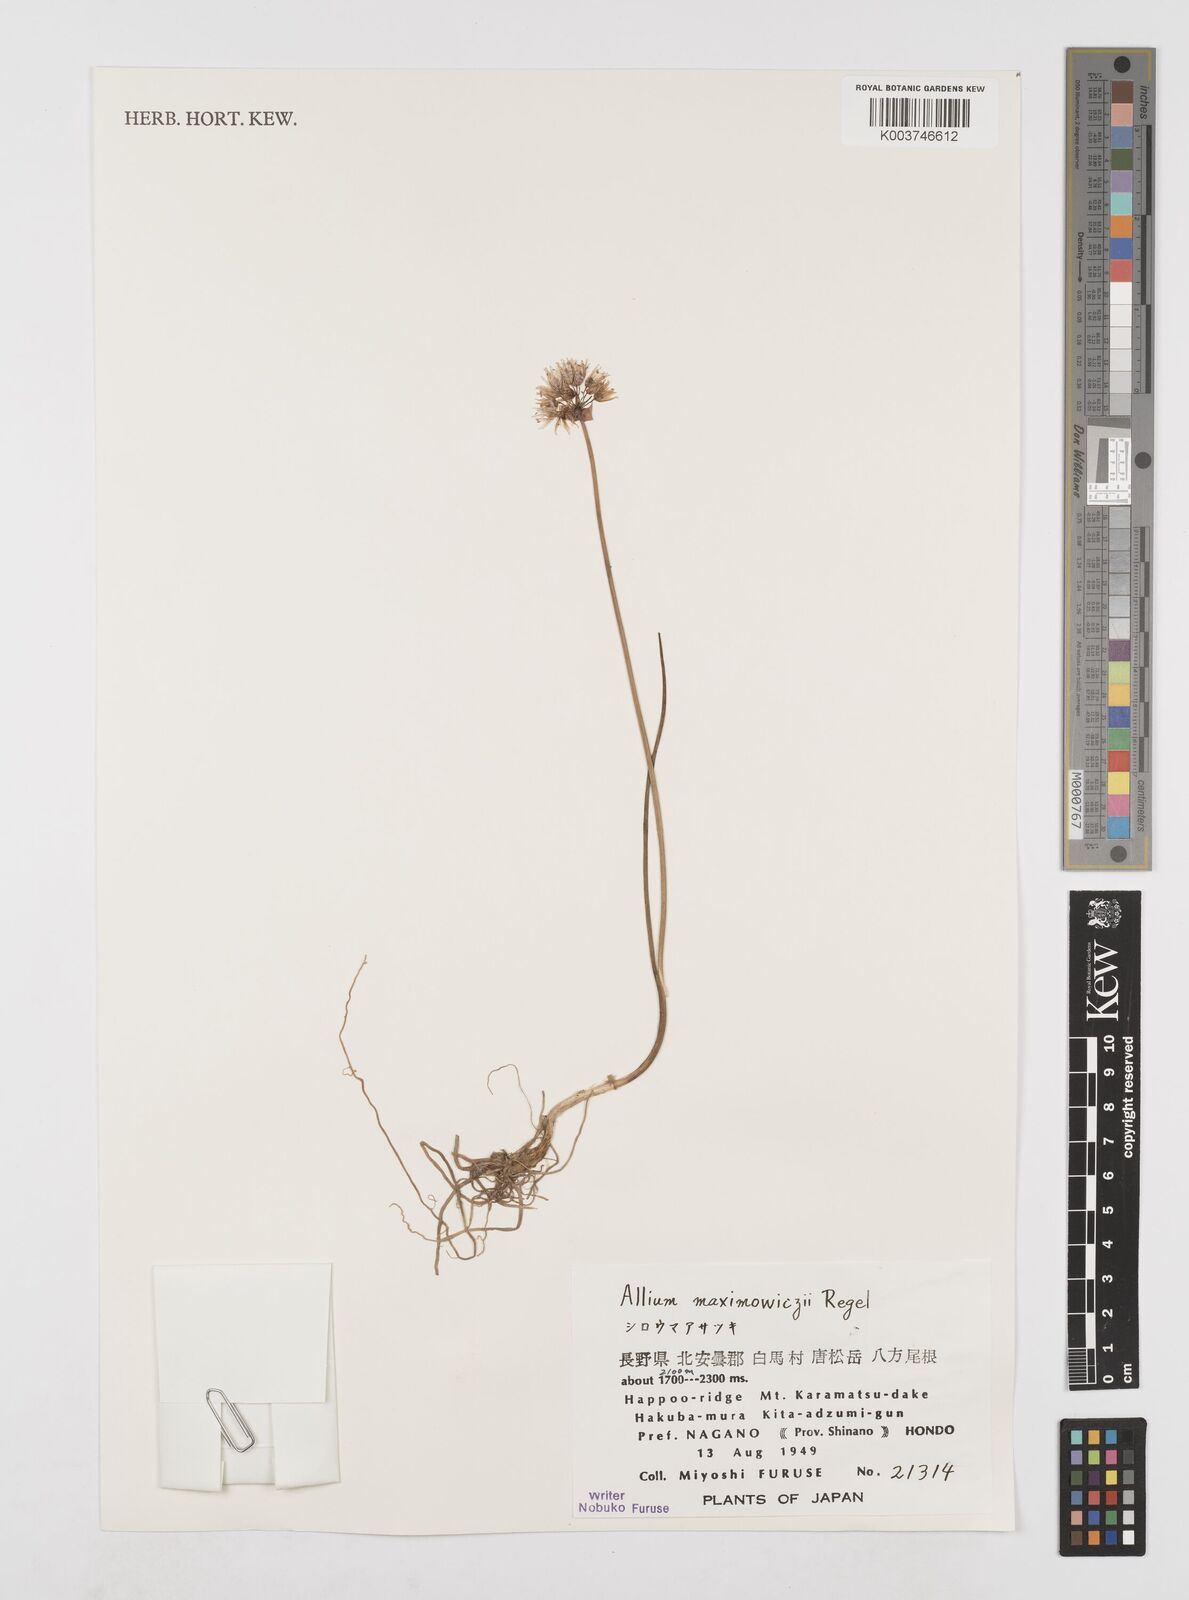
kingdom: Plantae
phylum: Tracheophyta
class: Liliopsida
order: Asparagales
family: Amaryllidaceae
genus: Allium
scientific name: Allium maximowiczii
